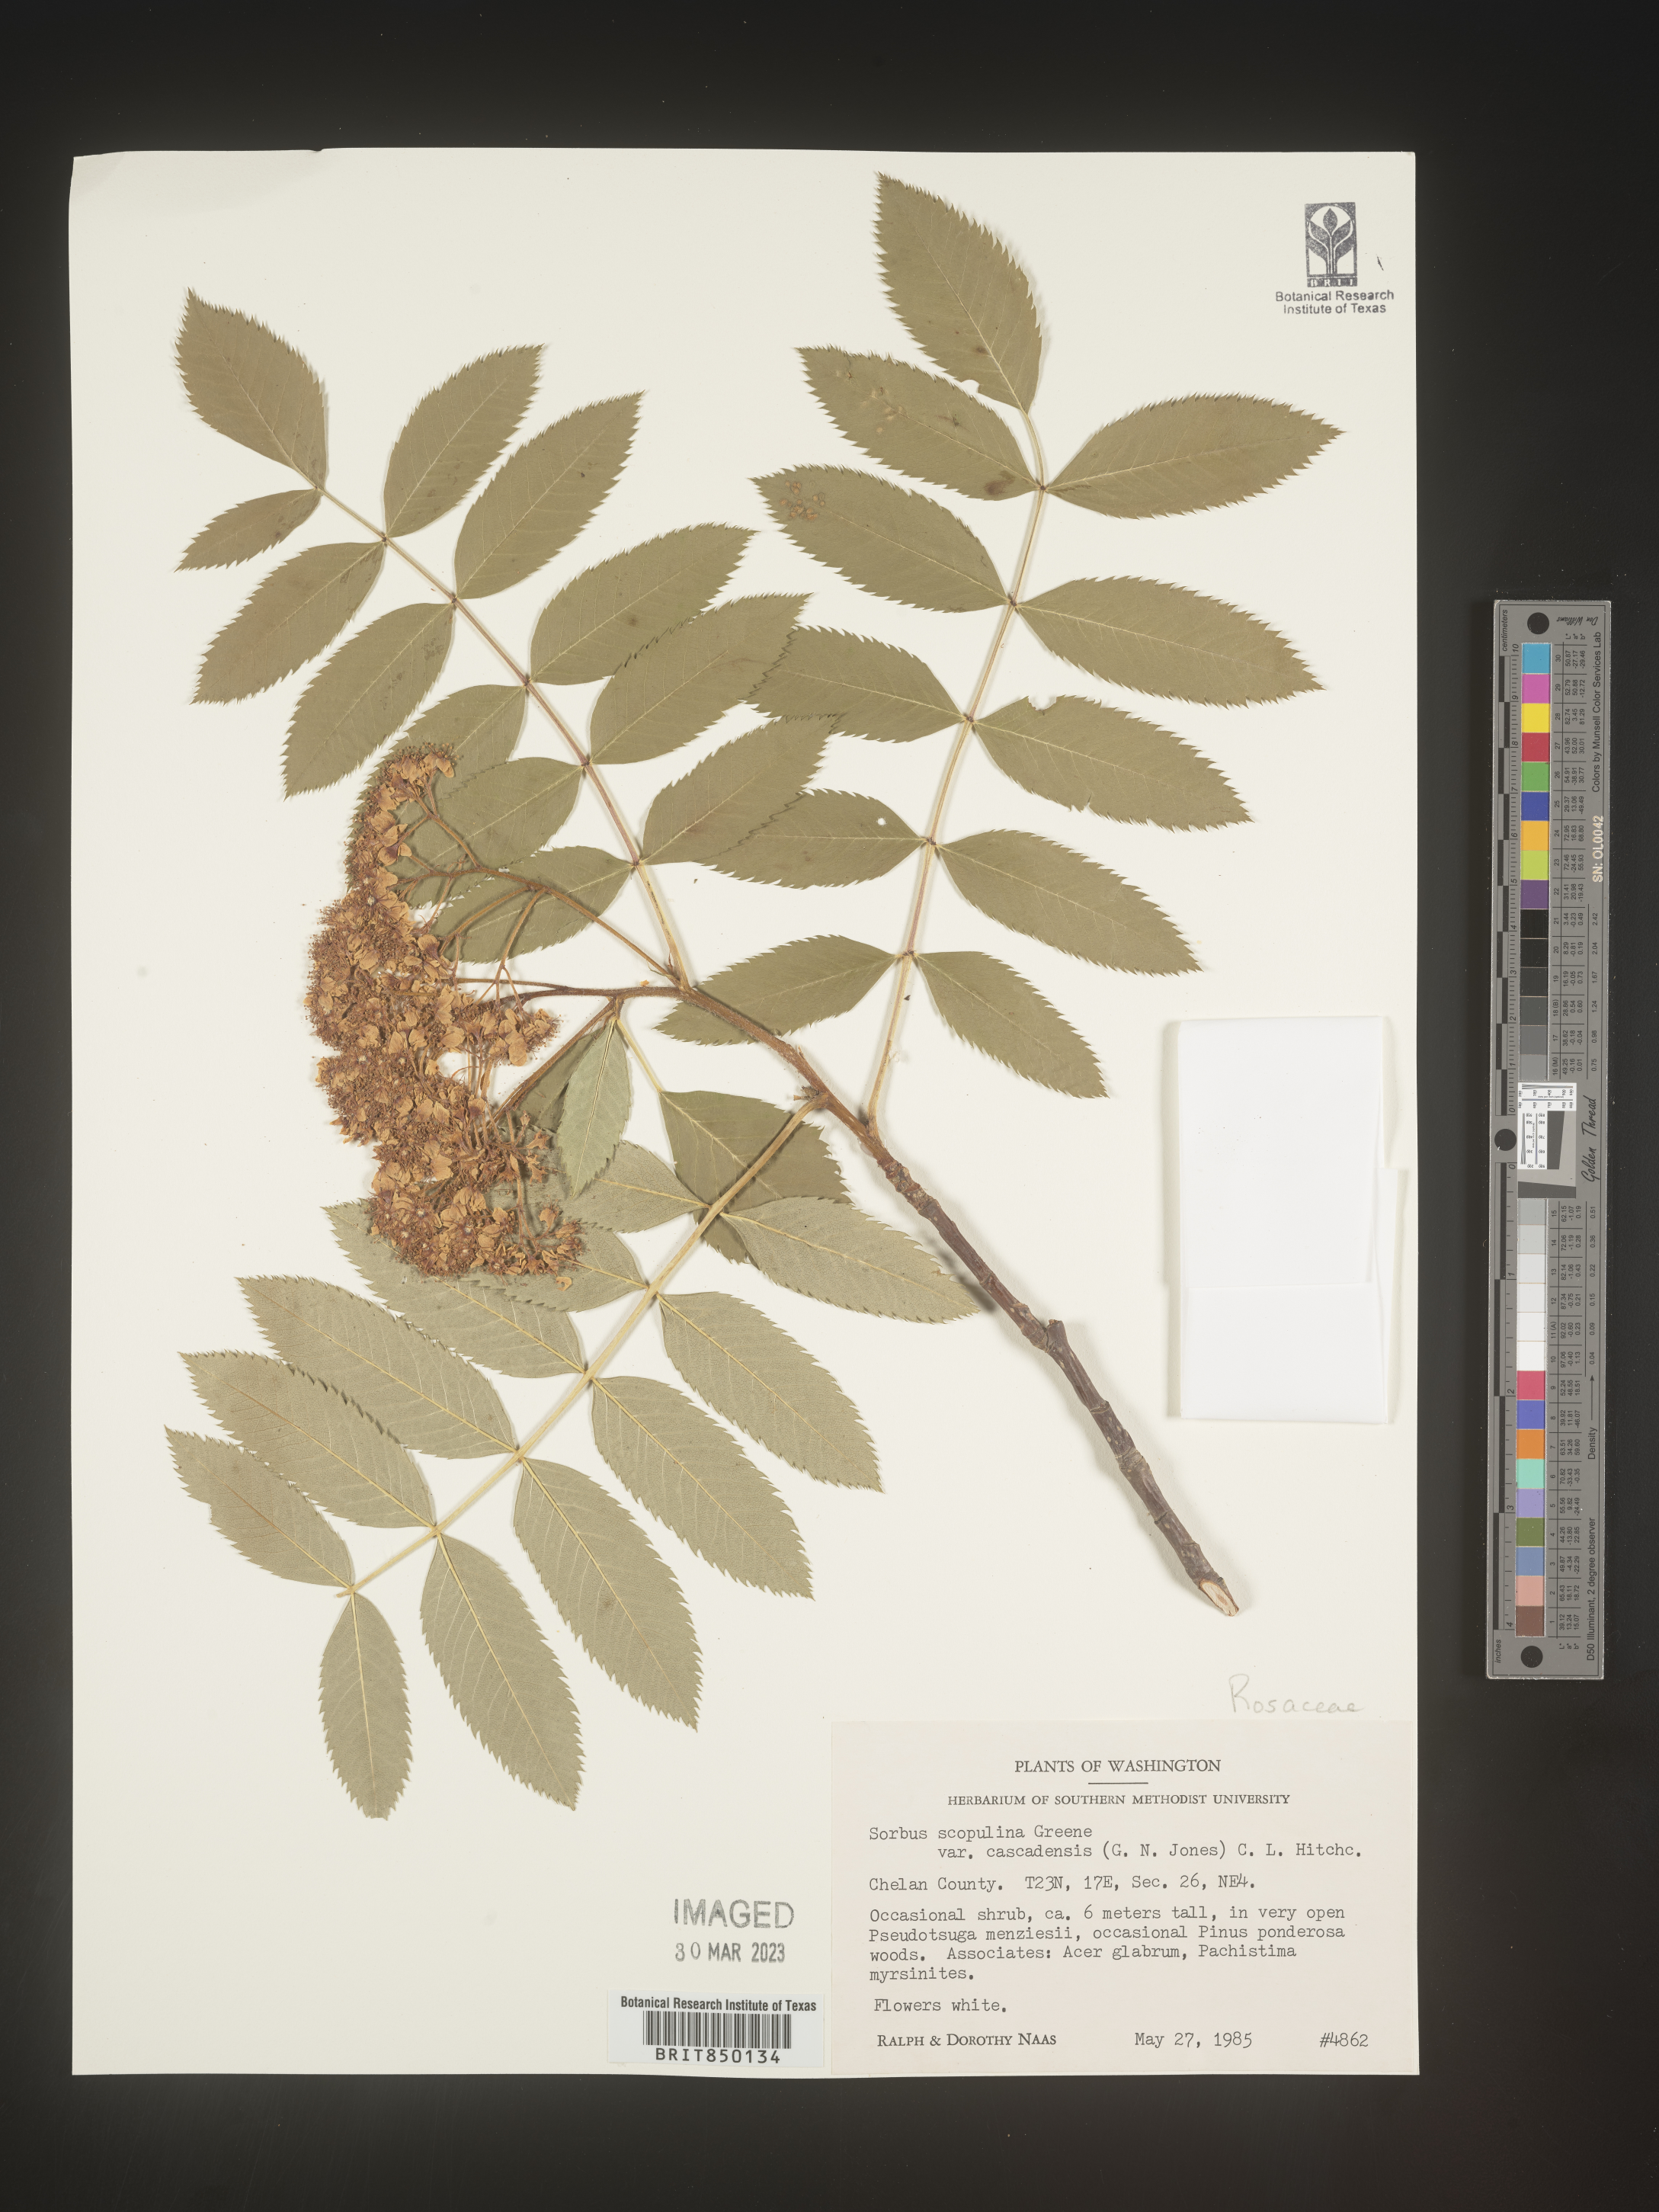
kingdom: Plantae
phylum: Tracheophyta
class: Magnoliopsida
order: Rosales
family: Rosaceae
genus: Sorbus
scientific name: Sorbus scopulina
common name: Greene's mountain-ash
